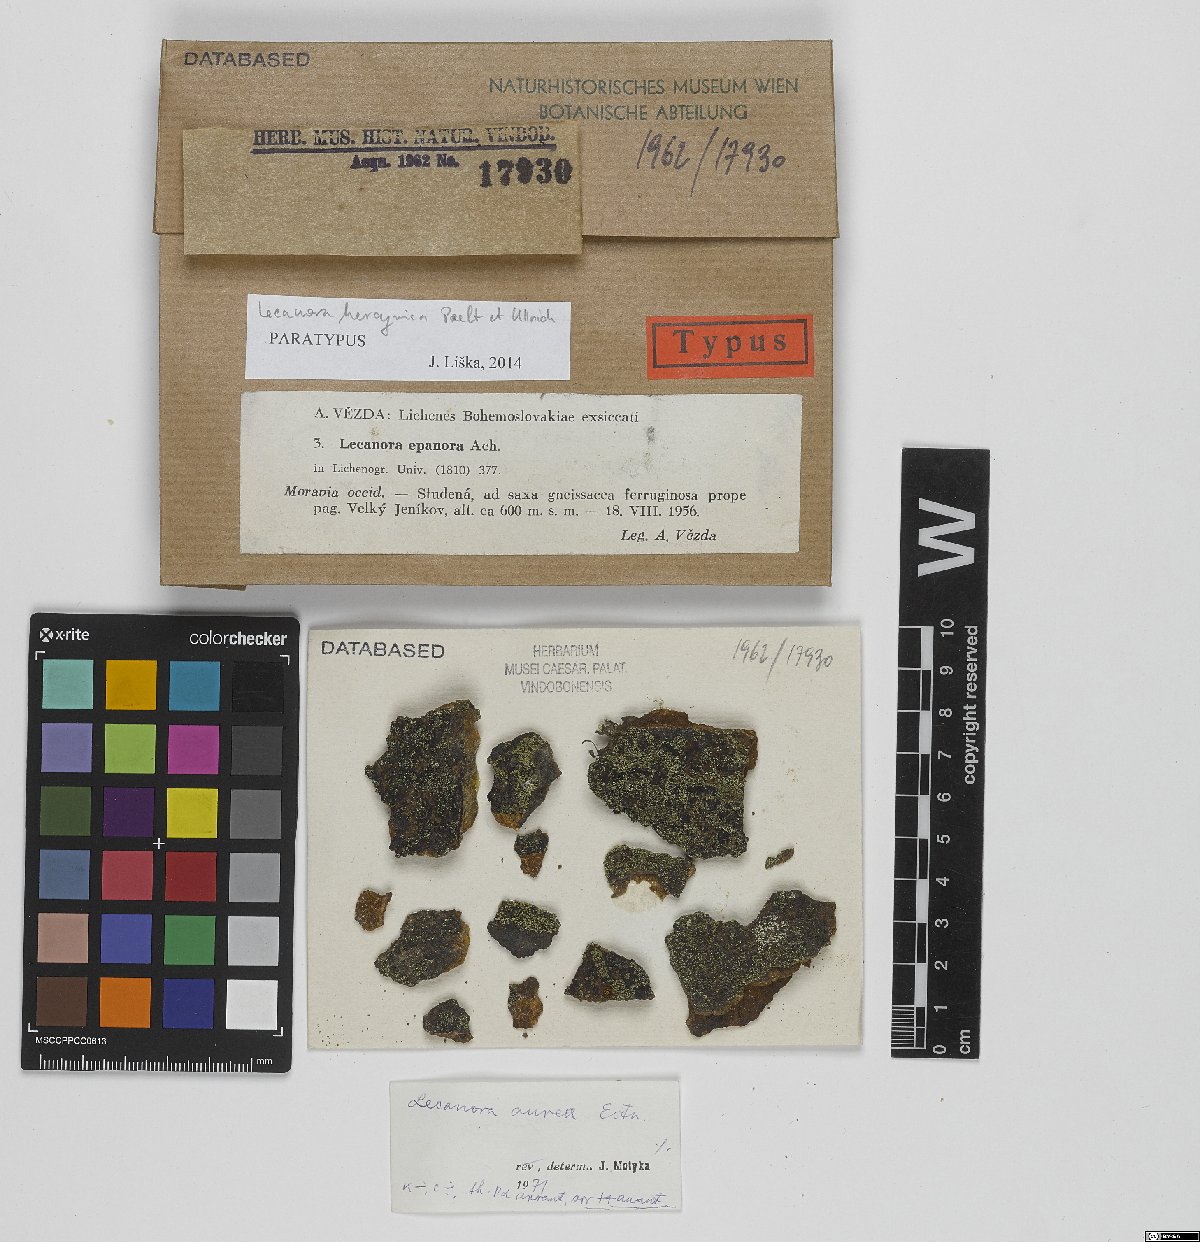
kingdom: Fungi
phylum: Ascomycota
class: Lecanoromycetes
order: Lecanorales
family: Lecanoraceae
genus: Lecanora
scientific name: Lecanora subaurea
